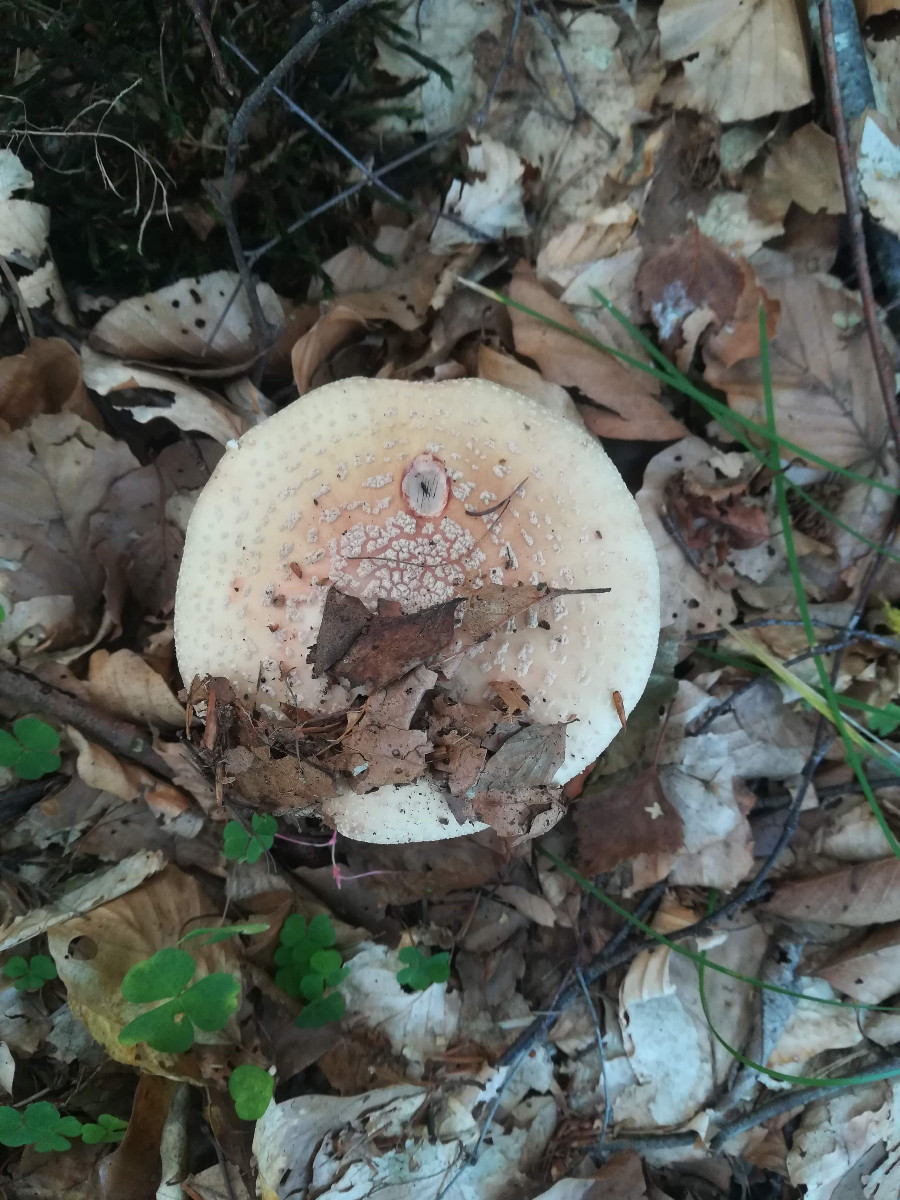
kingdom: Fungi
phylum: Basidiomycota
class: Agaricomycetes
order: Agaricales
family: Amanitaceae
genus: Amanita
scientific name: Amanita rubescens
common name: rødmende fluesvamp
